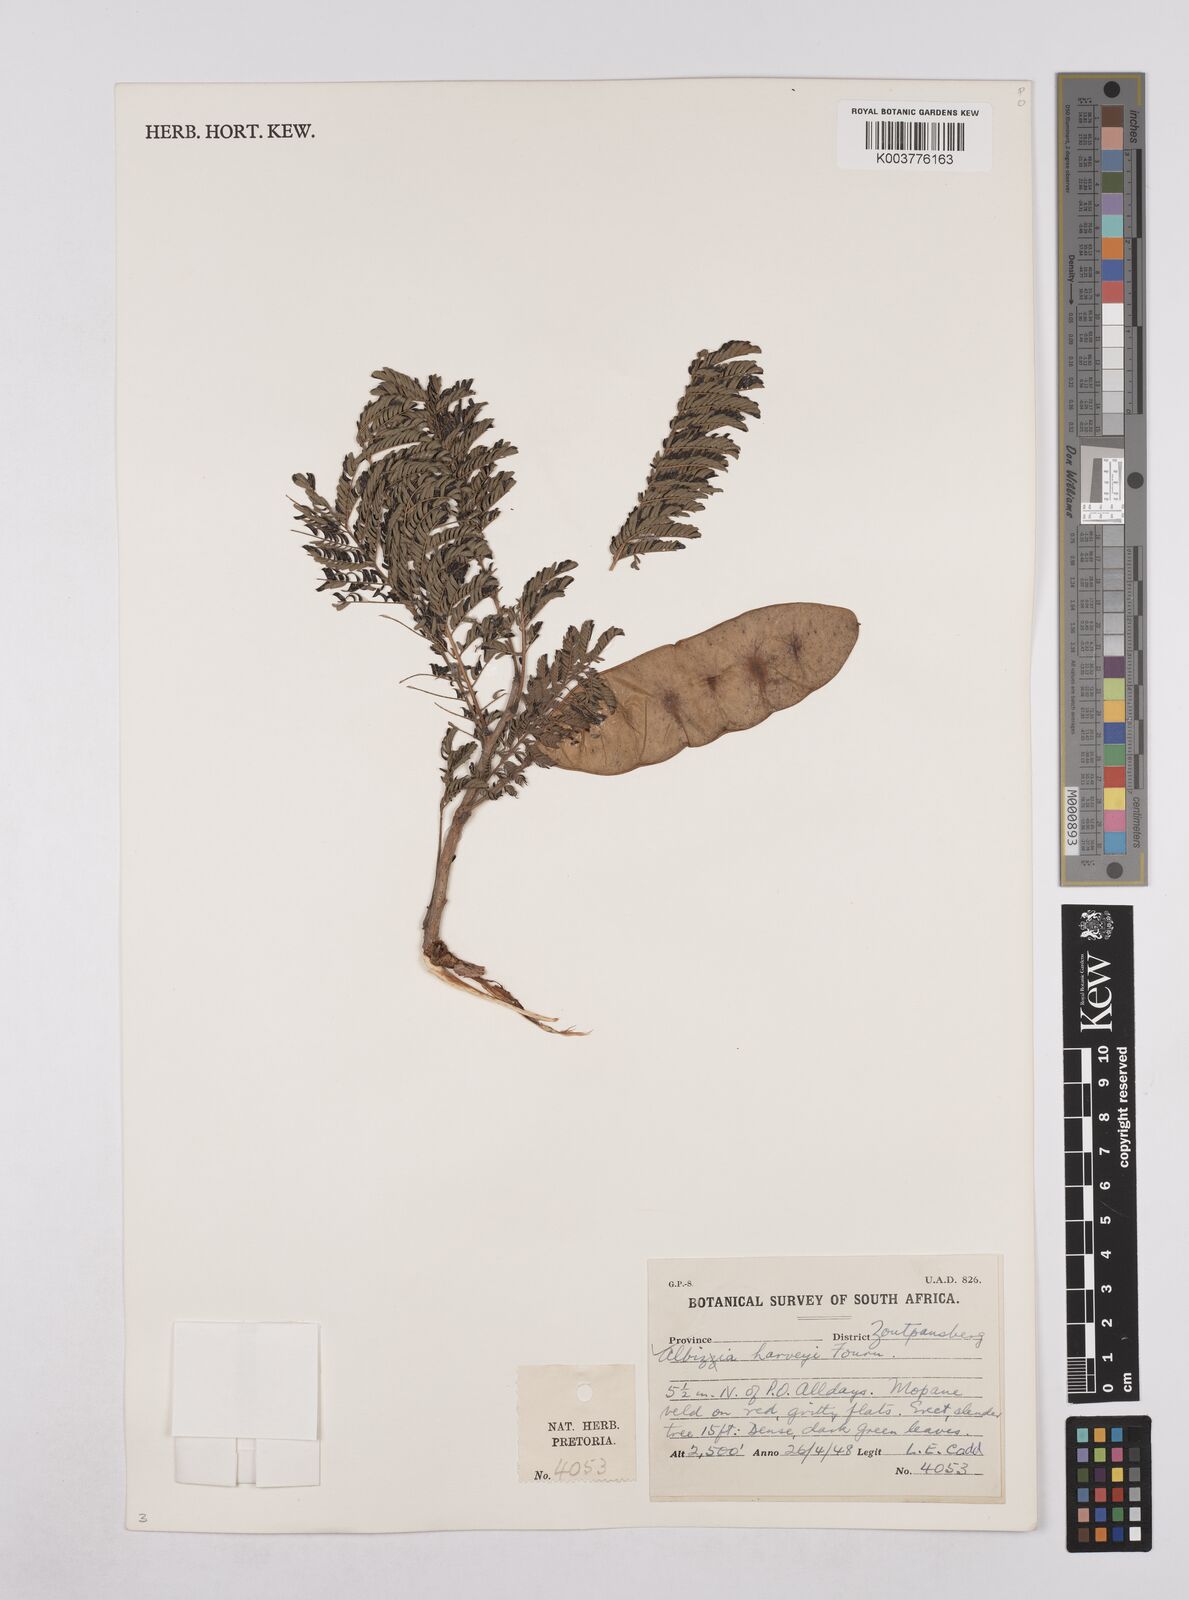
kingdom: Plantae
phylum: Tracheophyta
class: Magnoliopsida
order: Fabales
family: Fabaceae
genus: Albizia
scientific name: Albizia harveyi
